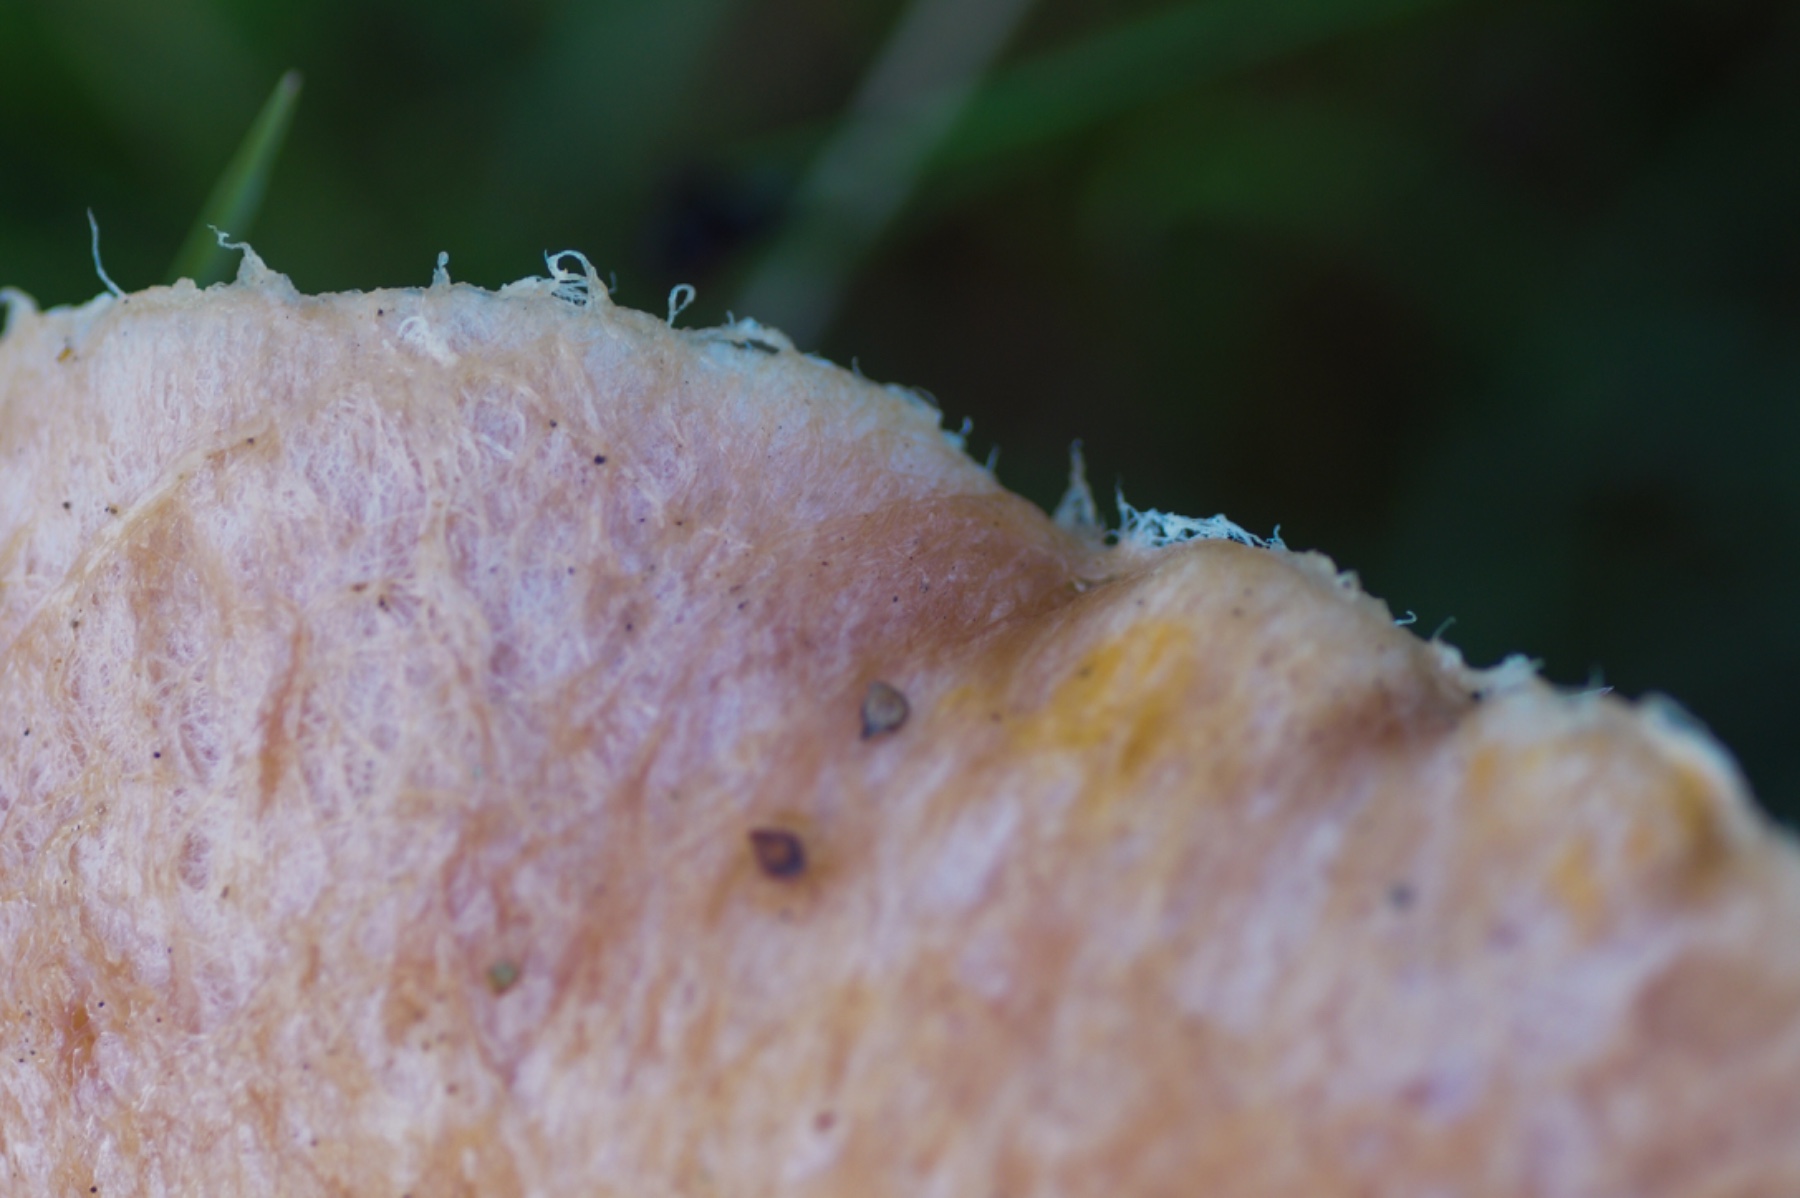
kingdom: Fungi
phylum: Basidiomycota
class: Agaricomycetes
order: Russulales
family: Russulaceae
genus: Lactarius
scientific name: Lactarius torminosus
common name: skægget mælkehat
